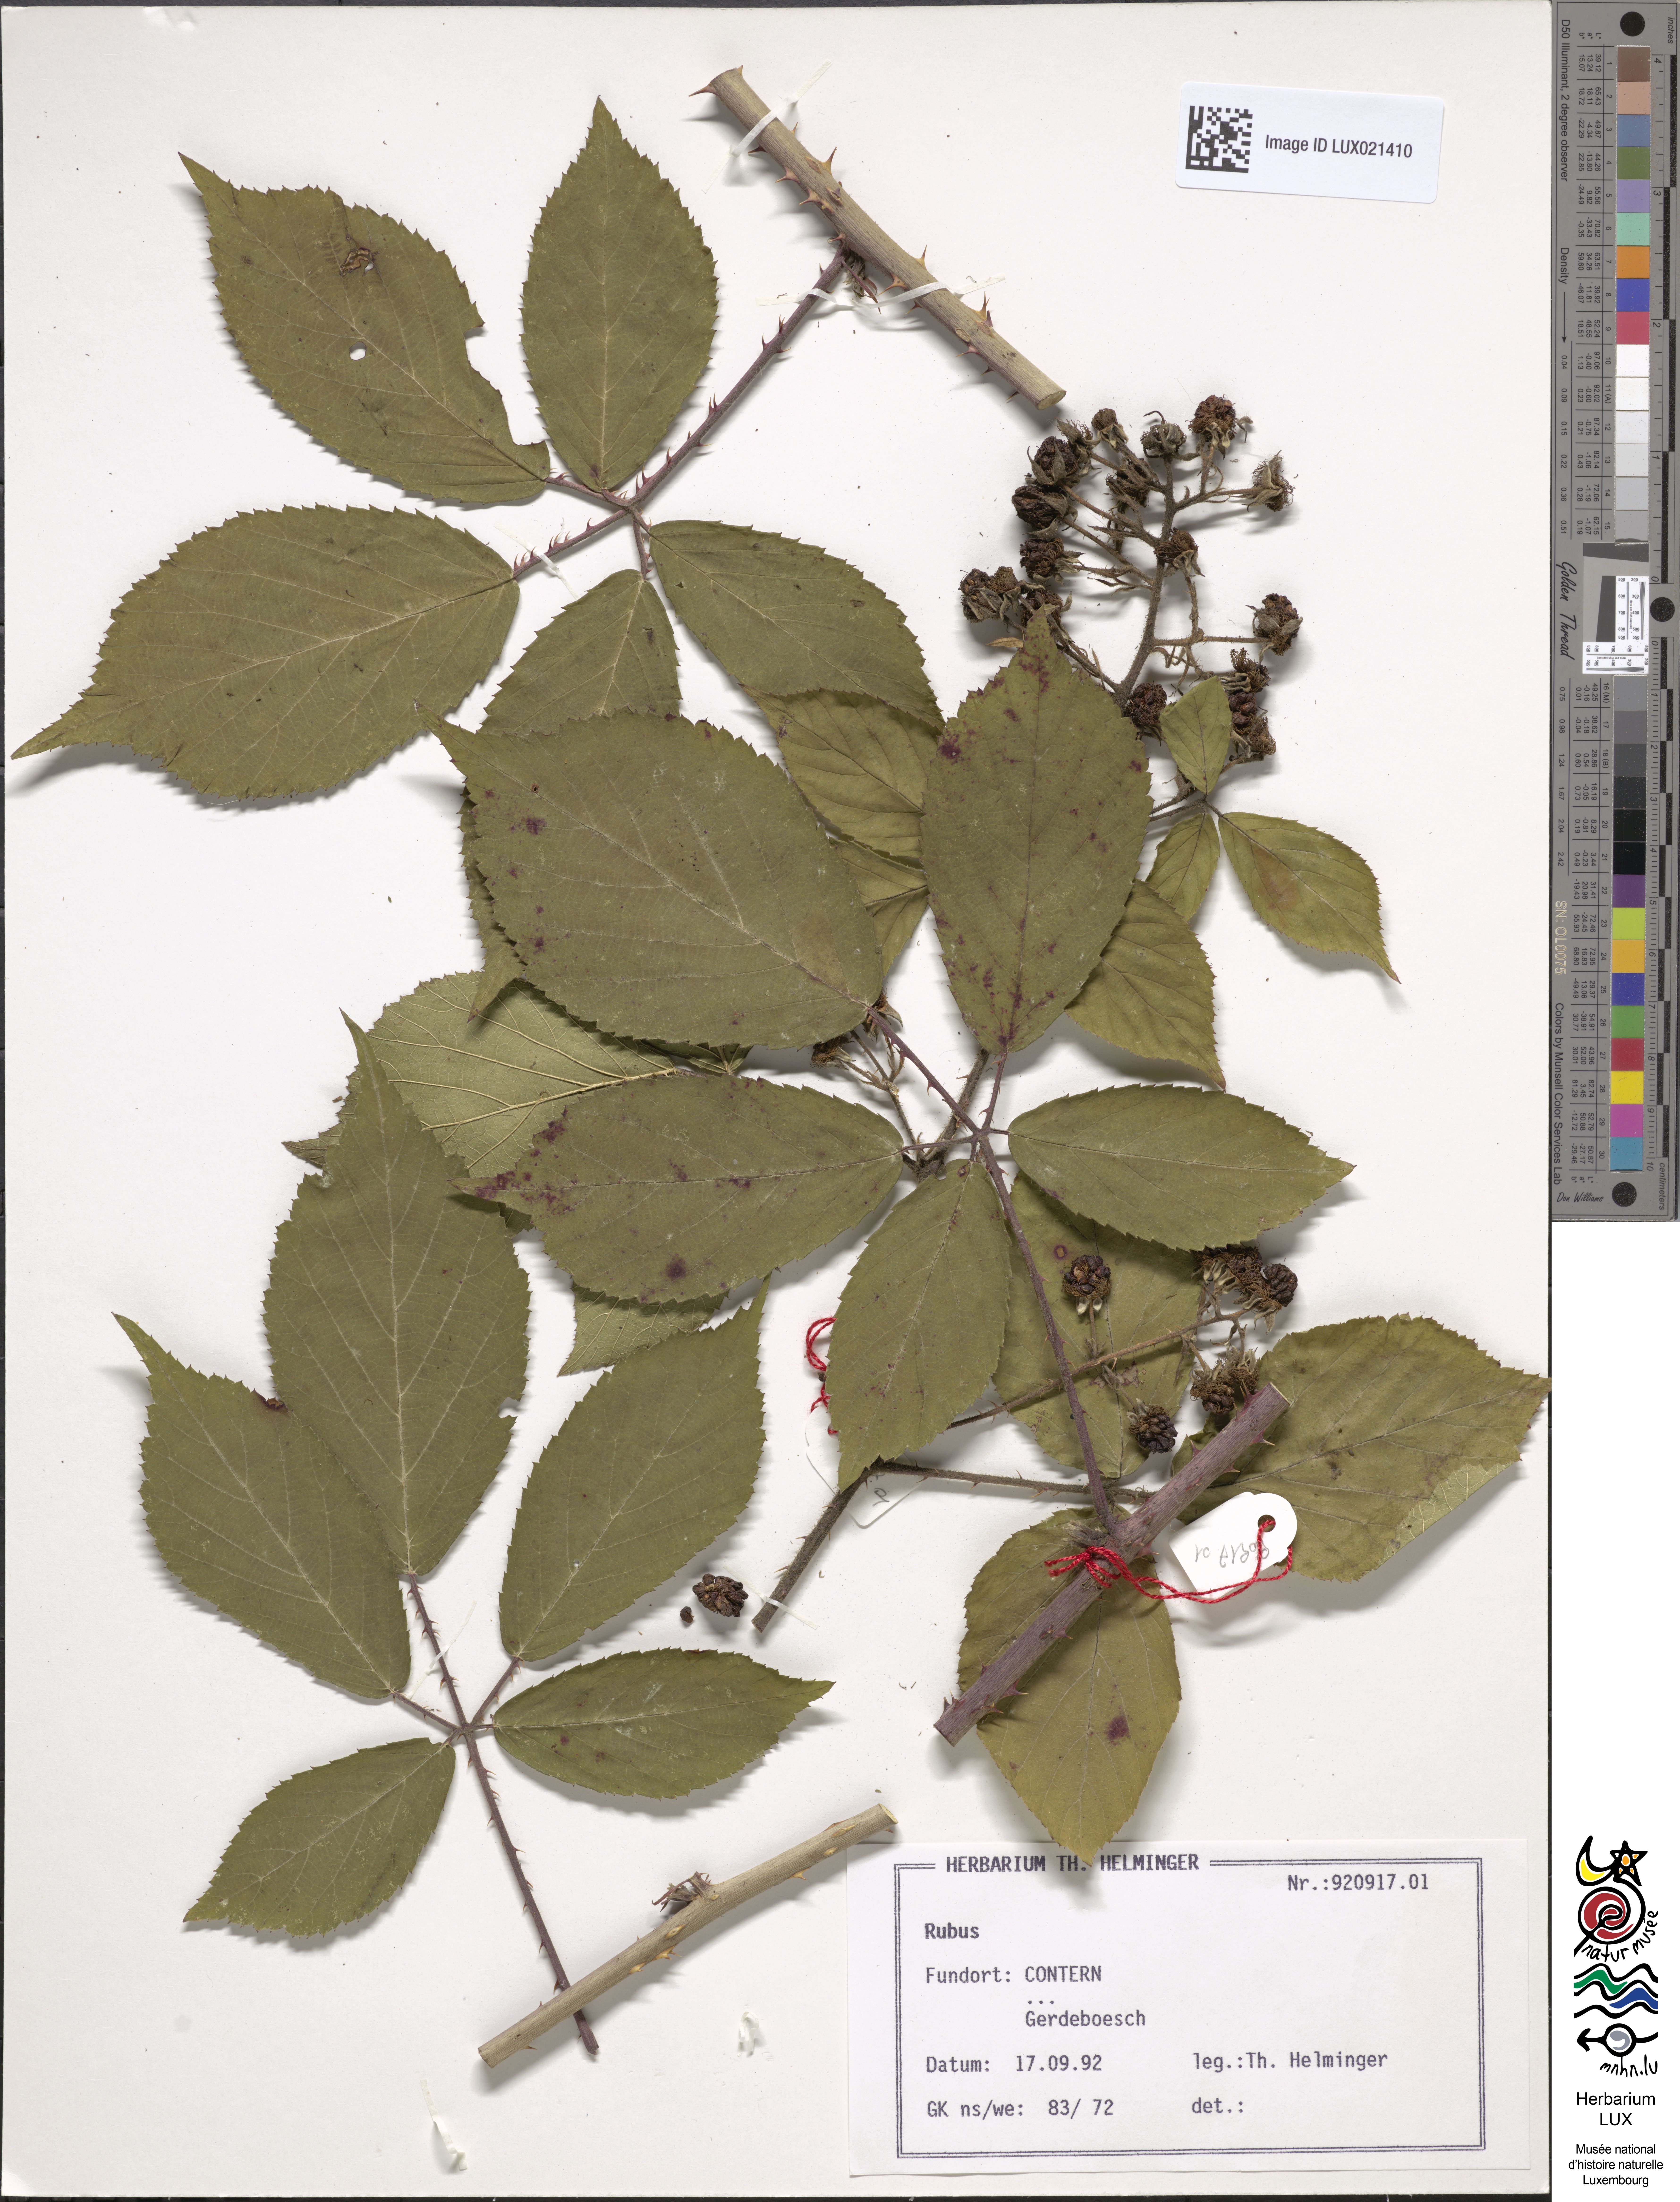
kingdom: Plantae
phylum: Tracheophyta
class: Magnoliopsida
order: Rosales
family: Rosaceae
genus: Rubus
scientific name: Rubus
